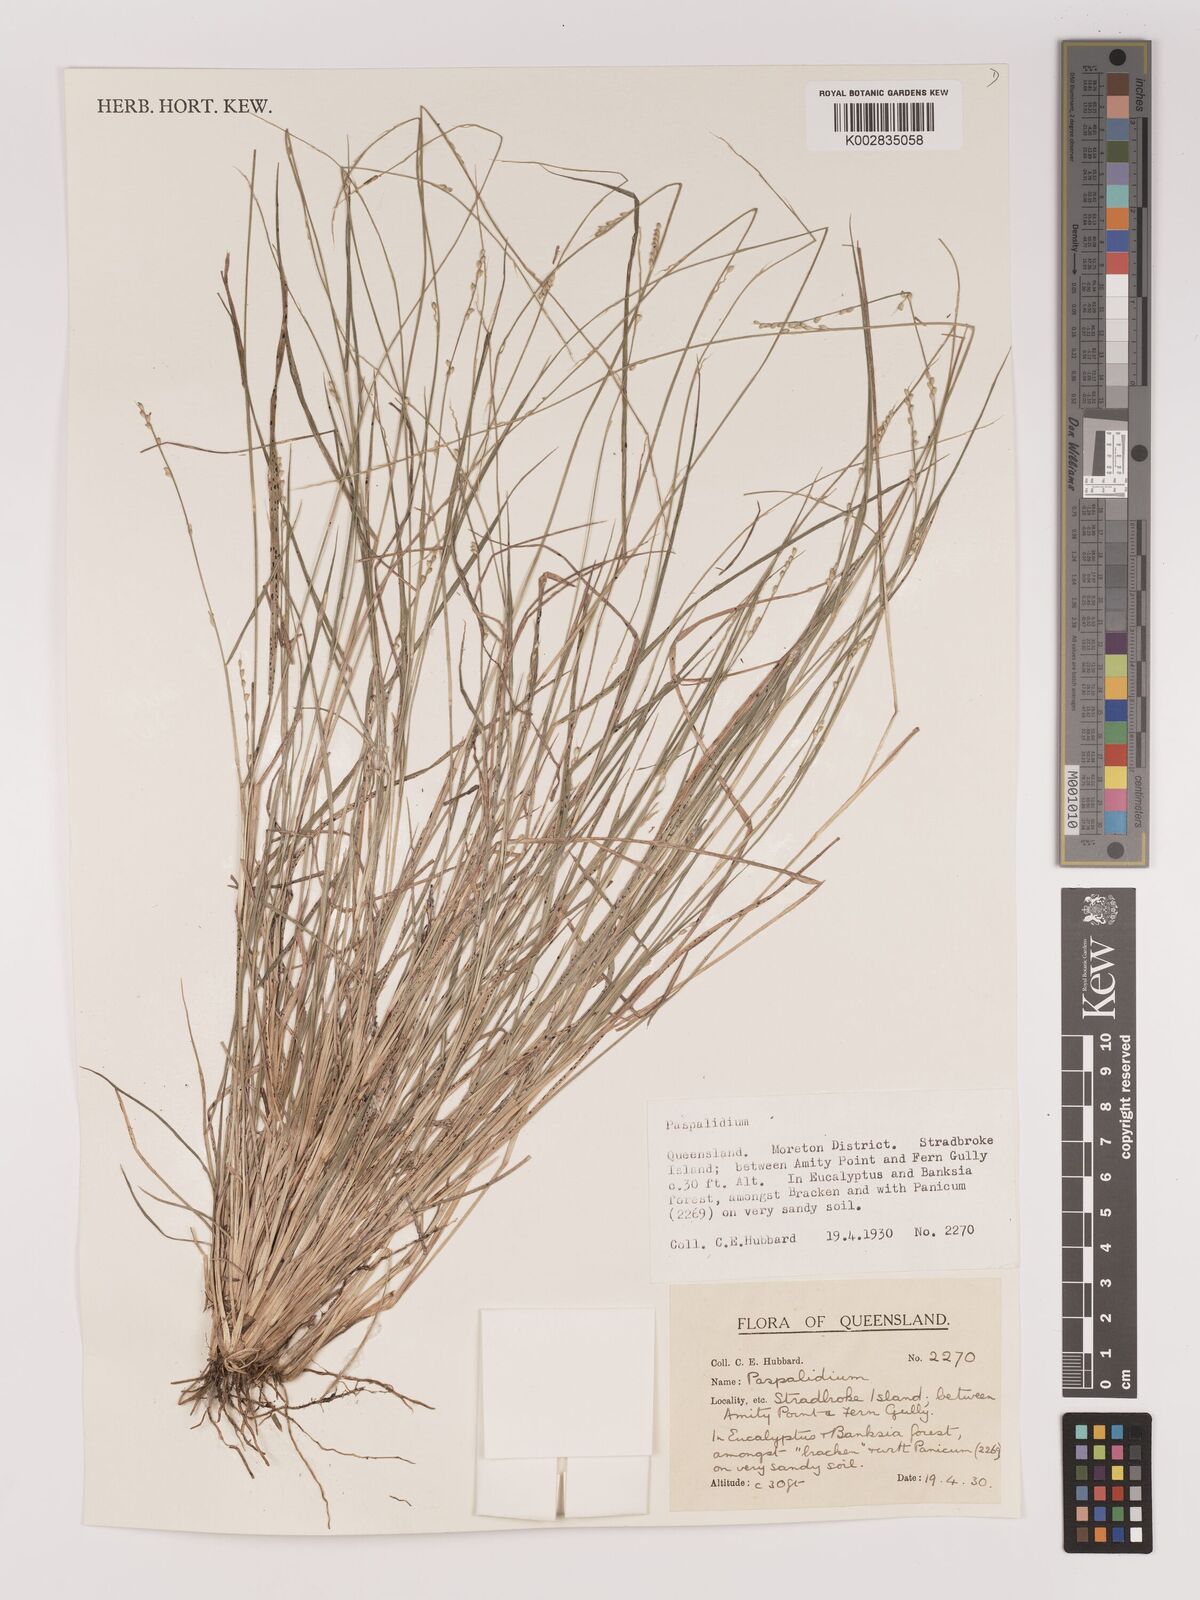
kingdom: Plantae
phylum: Tracheophyta
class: Liliopsida
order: Poales
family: Poaceae
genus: Setaria
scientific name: Setaria
